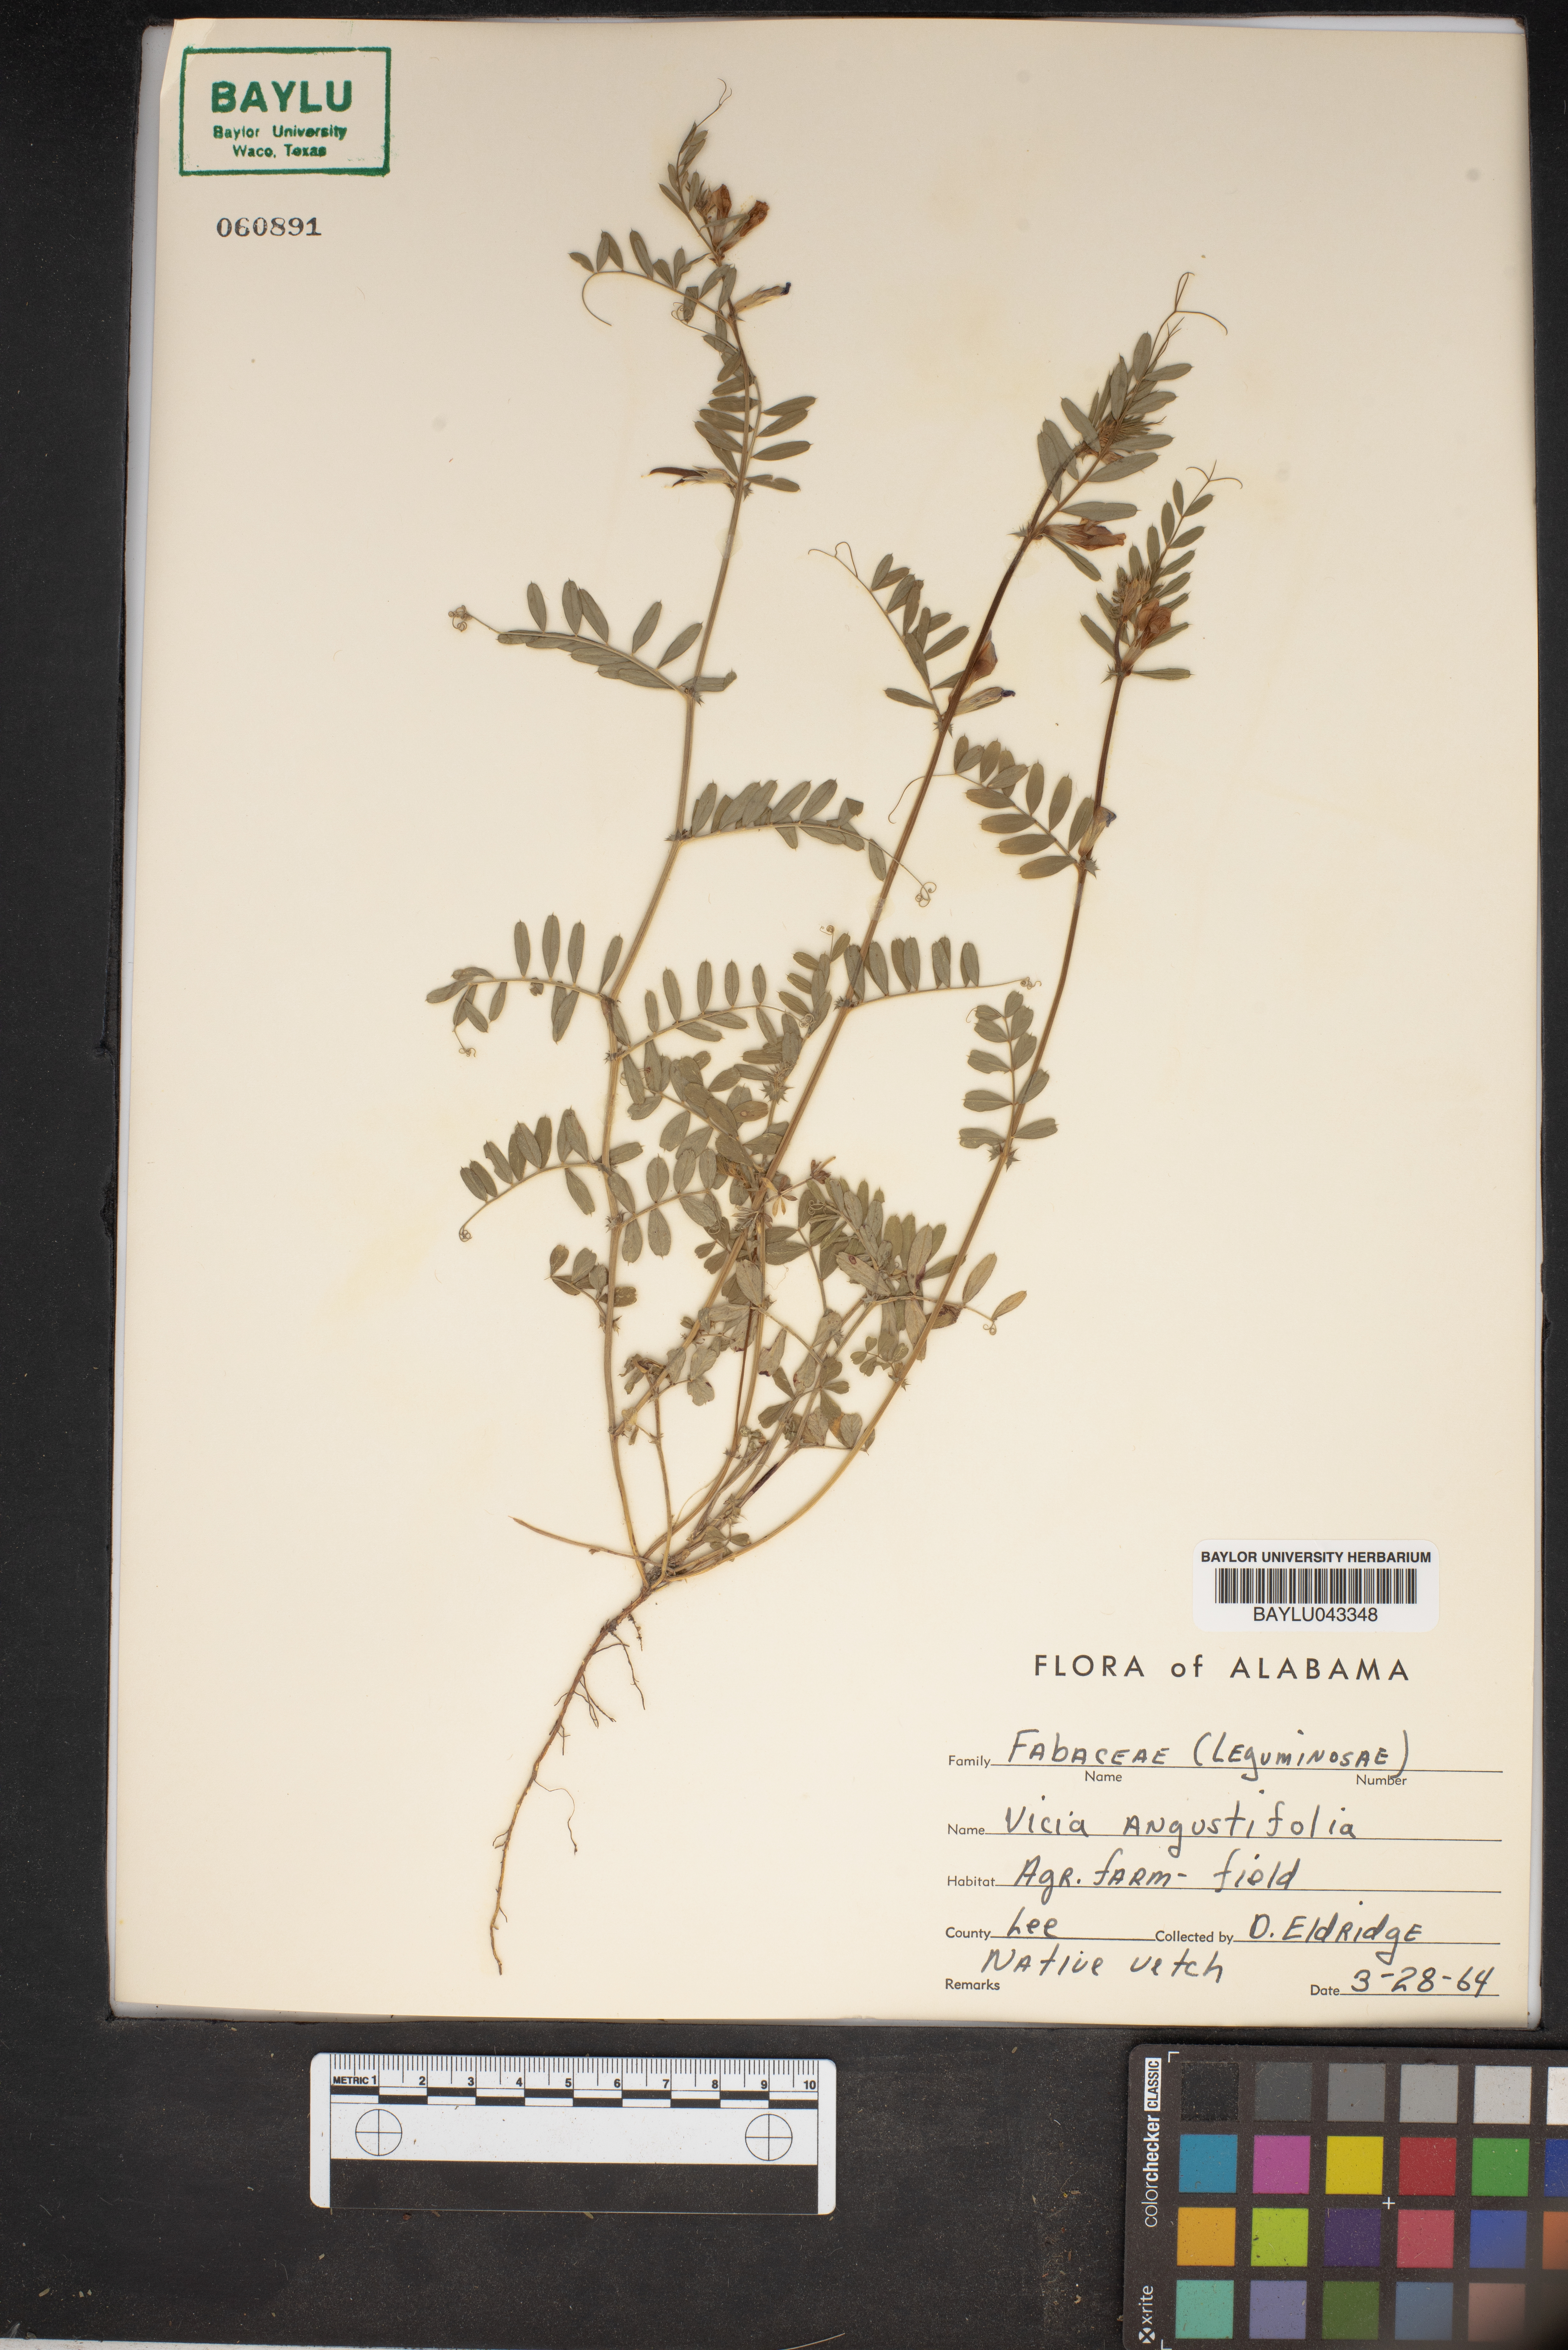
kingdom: Plantae
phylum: Tracheophyta
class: Magnoliopsida
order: Fabales
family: Fabaceae
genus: Vicia
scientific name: Vicia sativa
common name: Garden vetch
